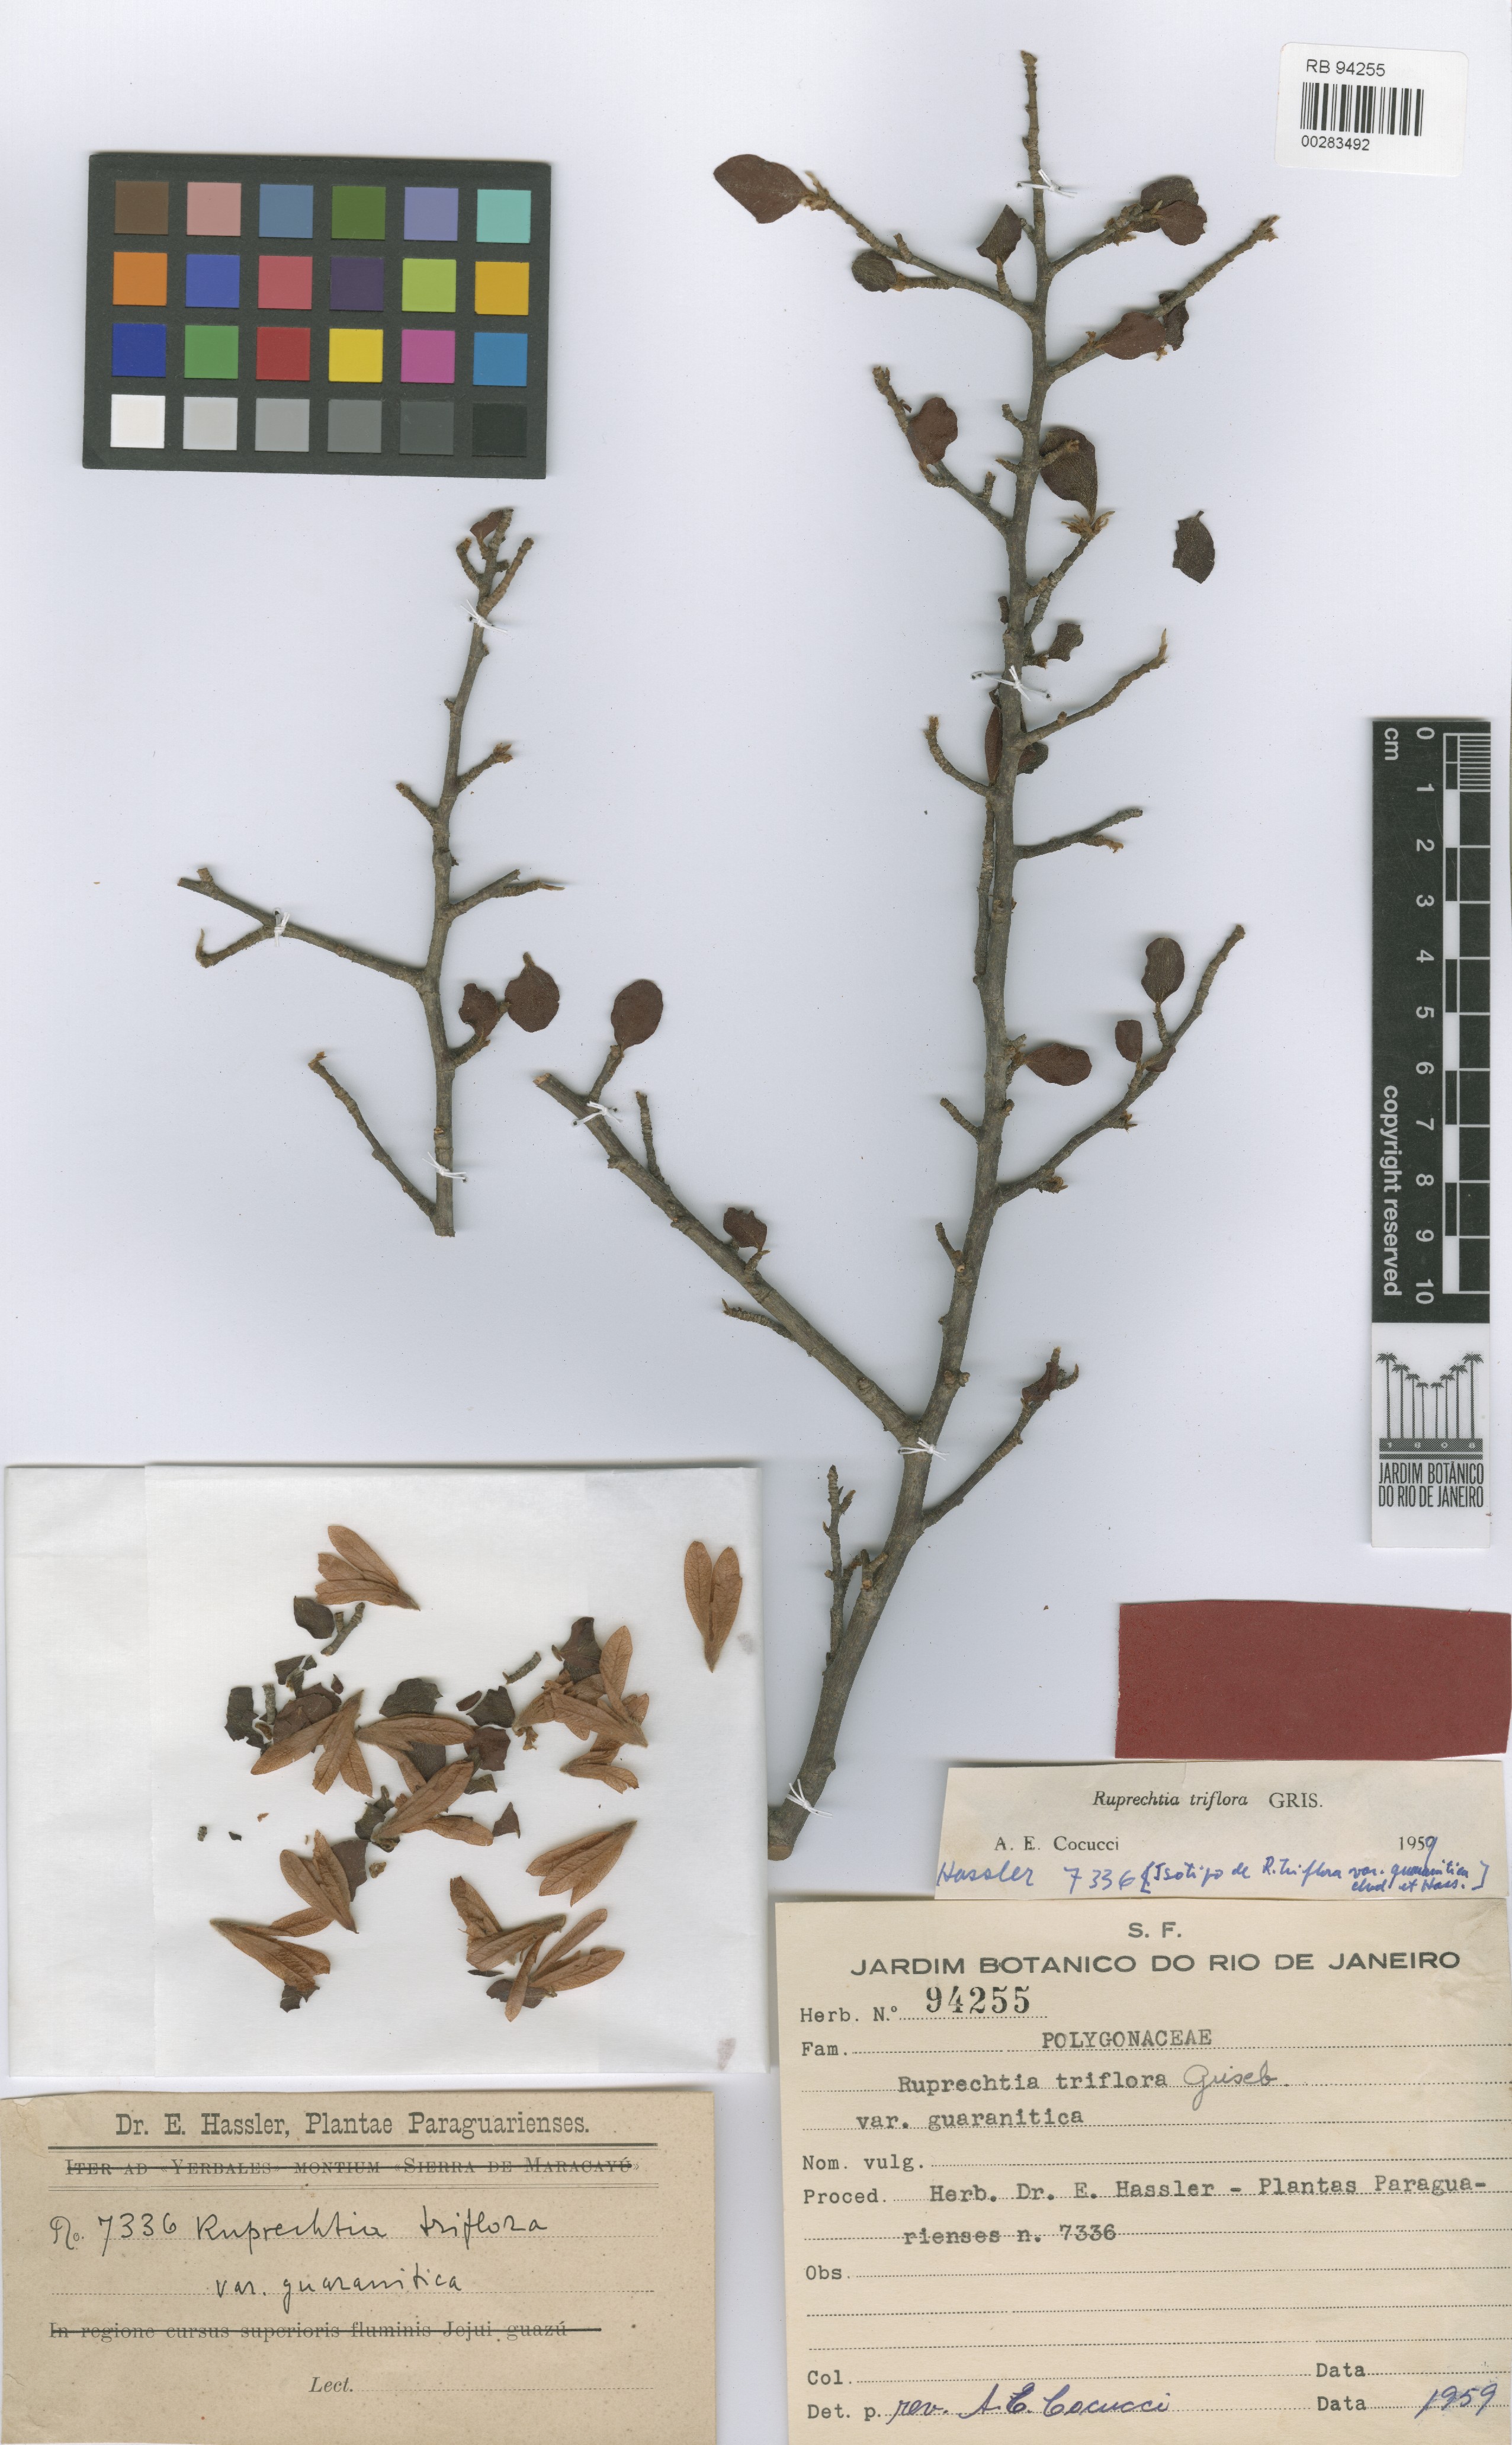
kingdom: Plantae
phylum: Tracheophyta
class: Magnoliopsida
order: Caryophyllales
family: Polygonaceae
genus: Salta
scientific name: Salta triflora
